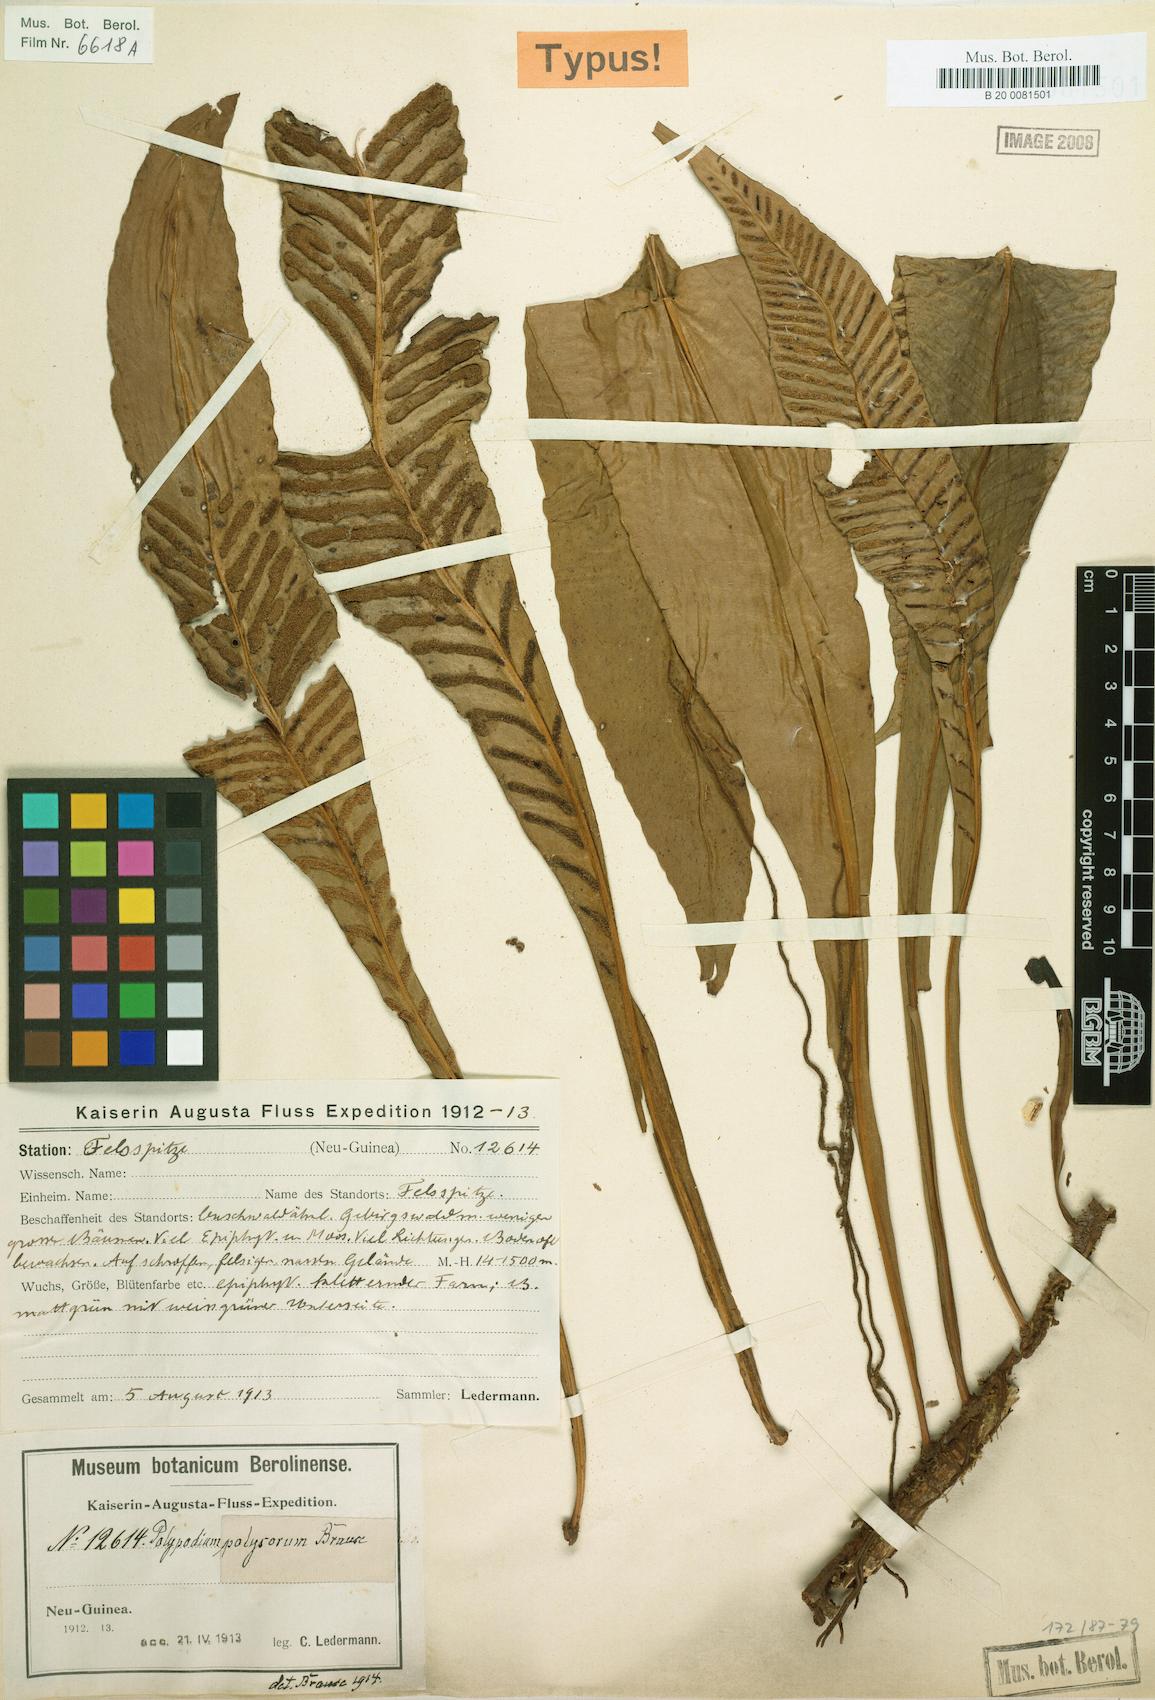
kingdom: Plantae
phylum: Tracheophyta
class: Polypodiopsida
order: Polypodiales
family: Polypodiaceae
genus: Leptochilus
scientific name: Leptochilus macrophyllus
